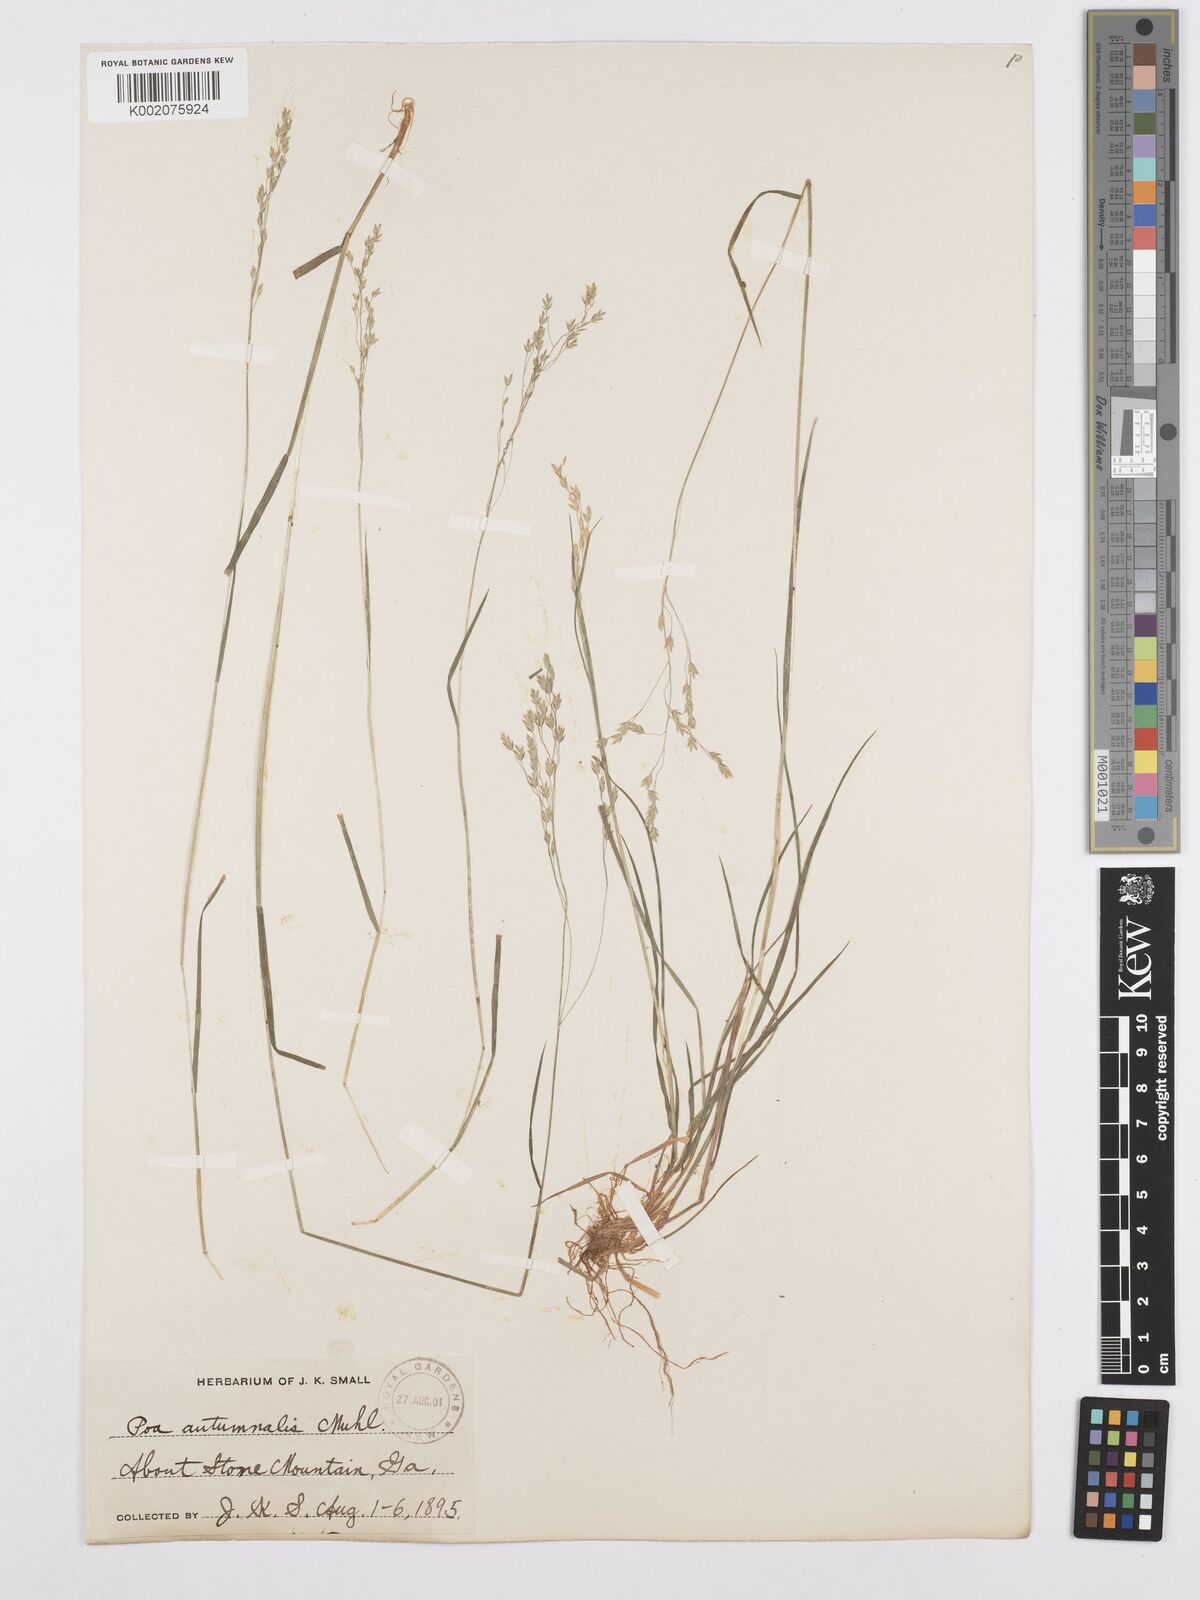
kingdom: Plantae
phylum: Tracheophyta
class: Liliopsida
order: Poales
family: Poaceae
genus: Poa
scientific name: Poa autumnalis
